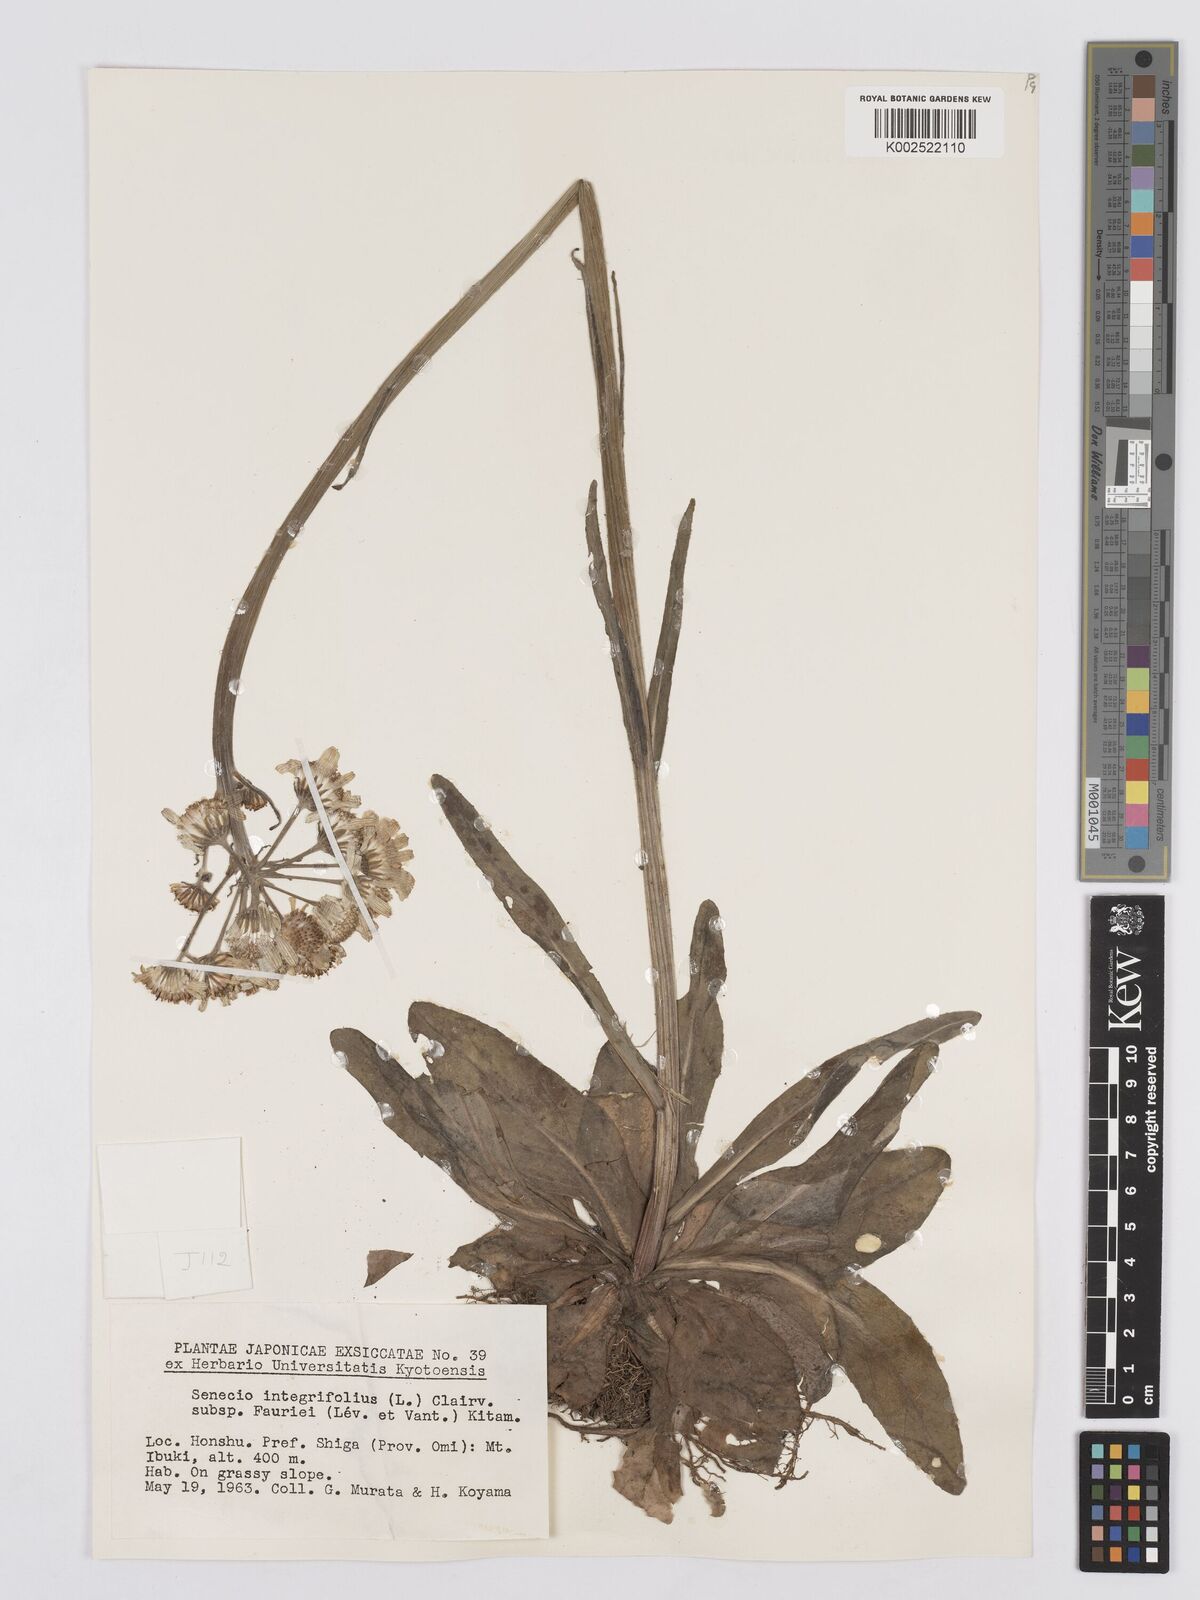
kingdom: Plantae
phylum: Tracheophyta
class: Magnoliopsida
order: Asterales
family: Asteraceae
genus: Tephroseris
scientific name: Tephroseris kirilowii
